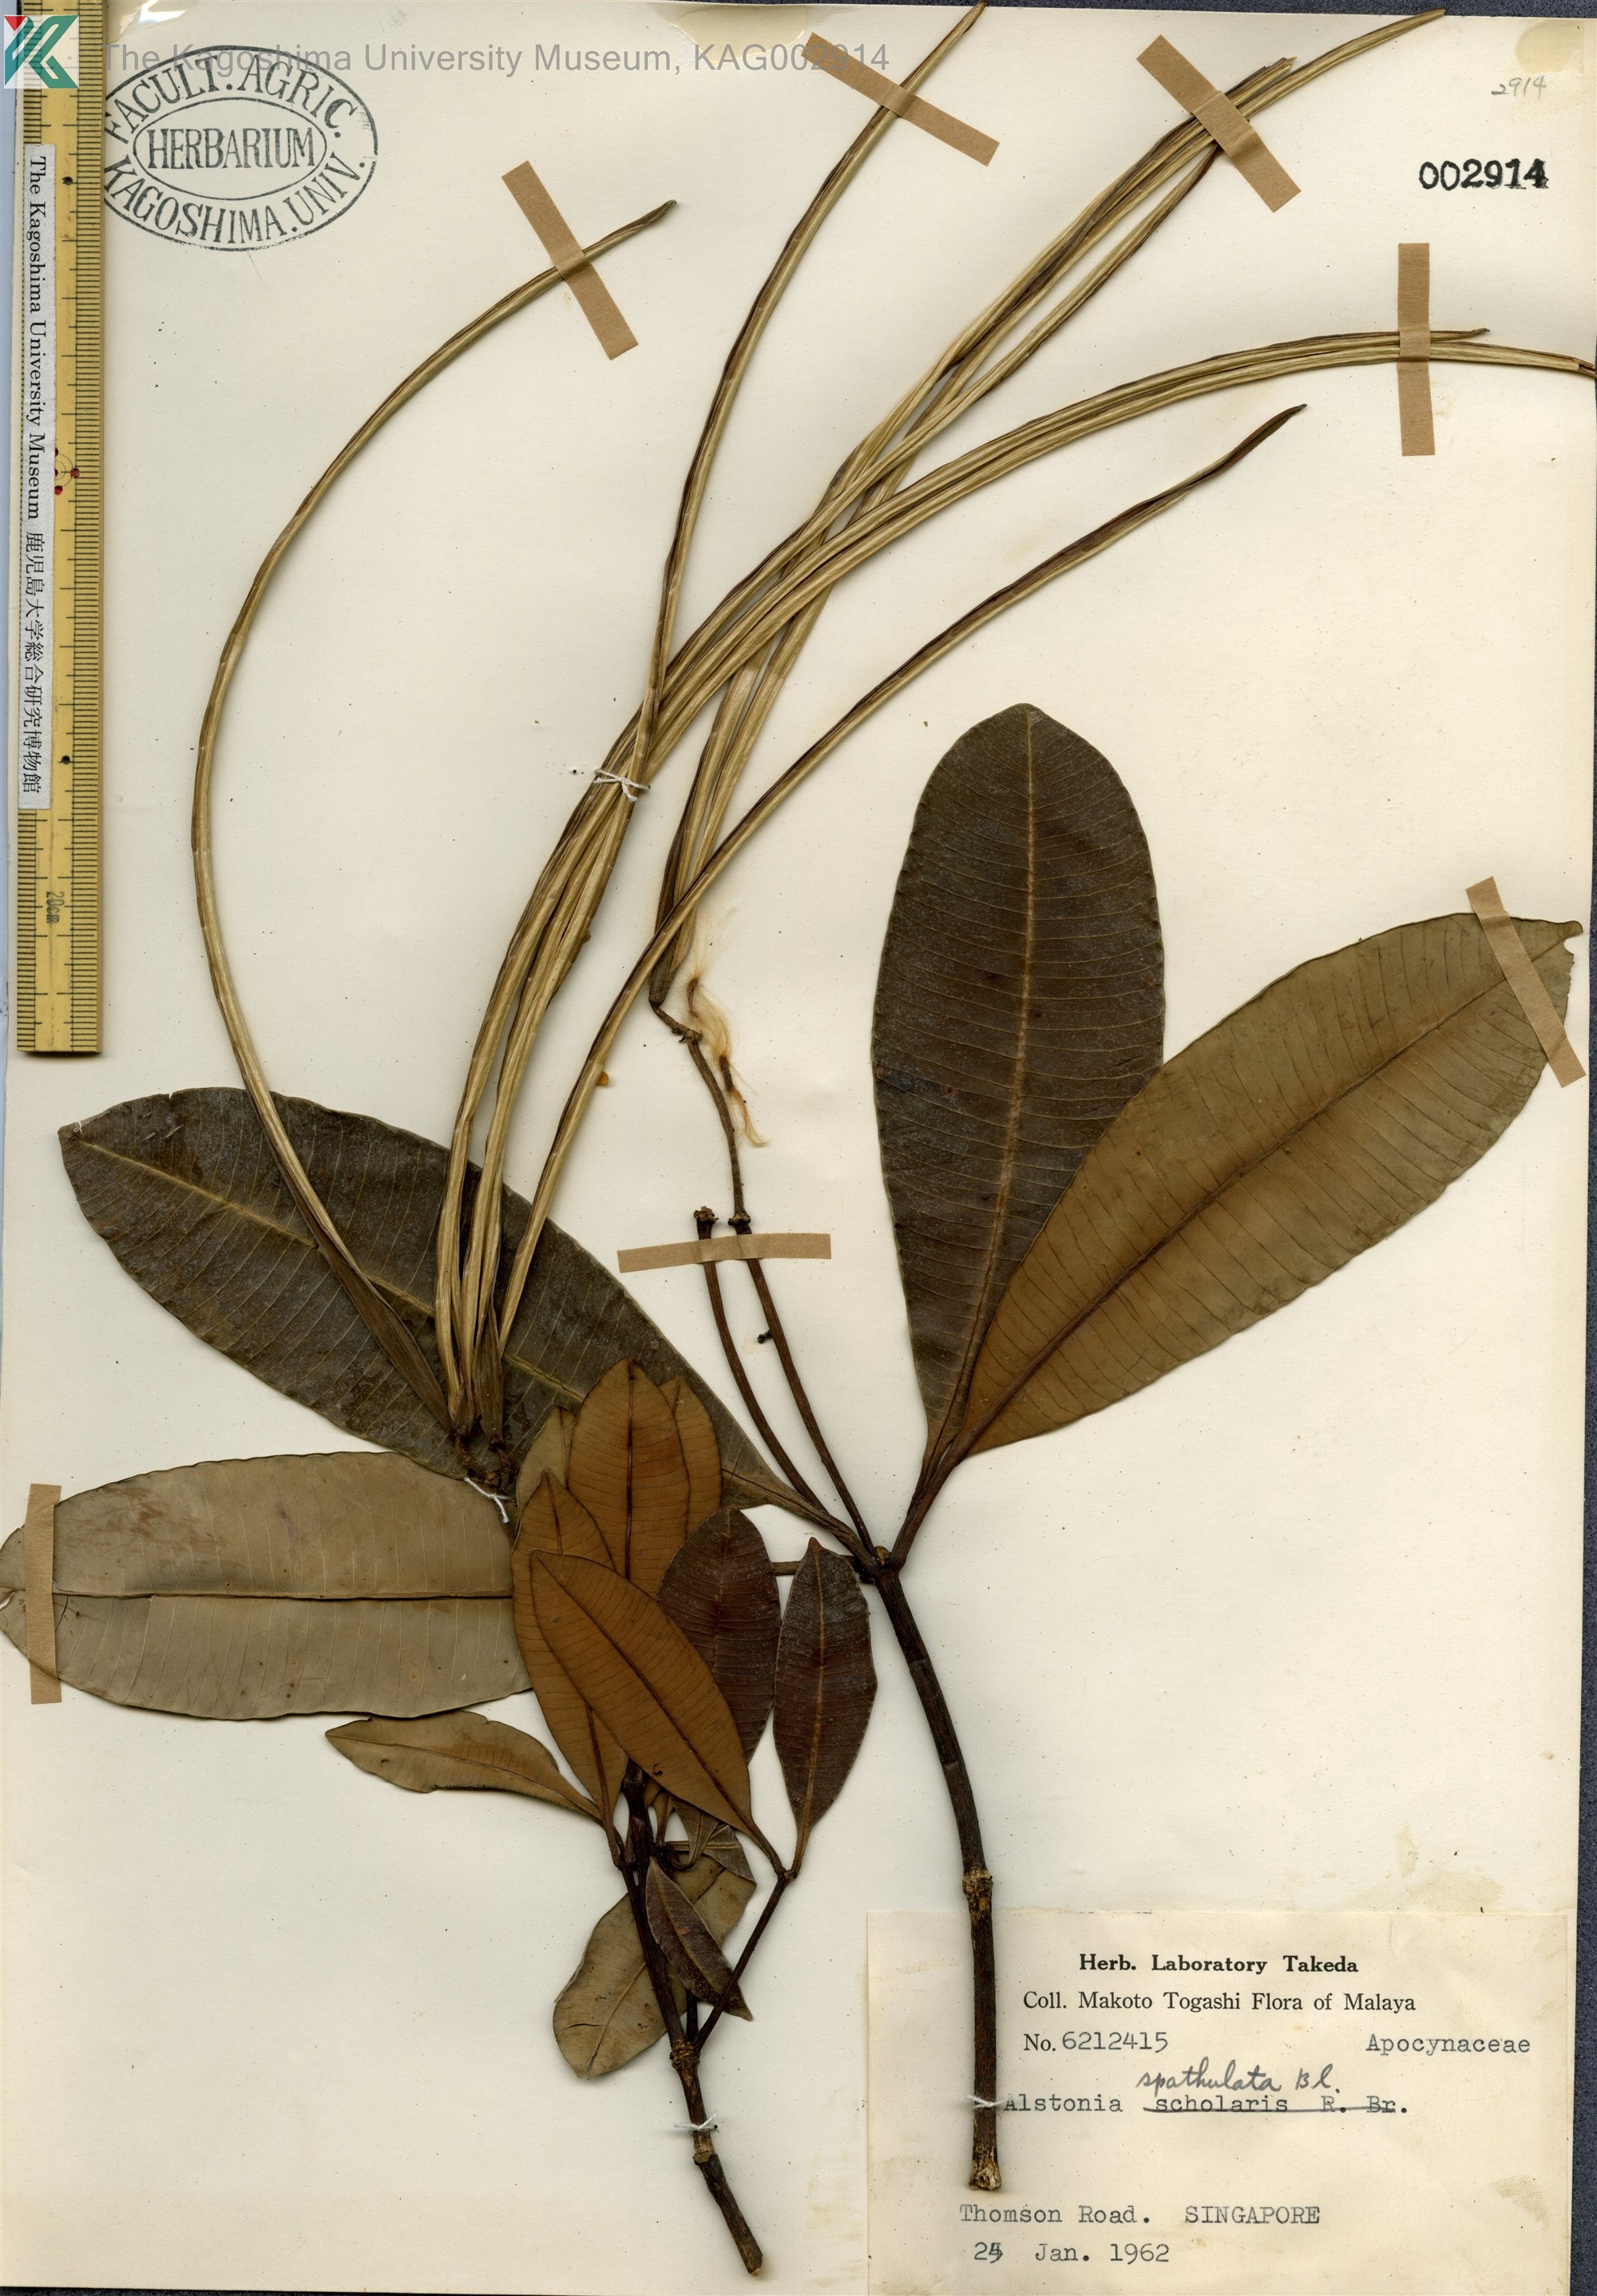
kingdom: Plantae
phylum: Tracheophyta
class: Magnoliopsida
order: Gentianales
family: Apocynaceae
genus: Alstonia
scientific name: Alstonia spatulata
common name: Hard milkwood
